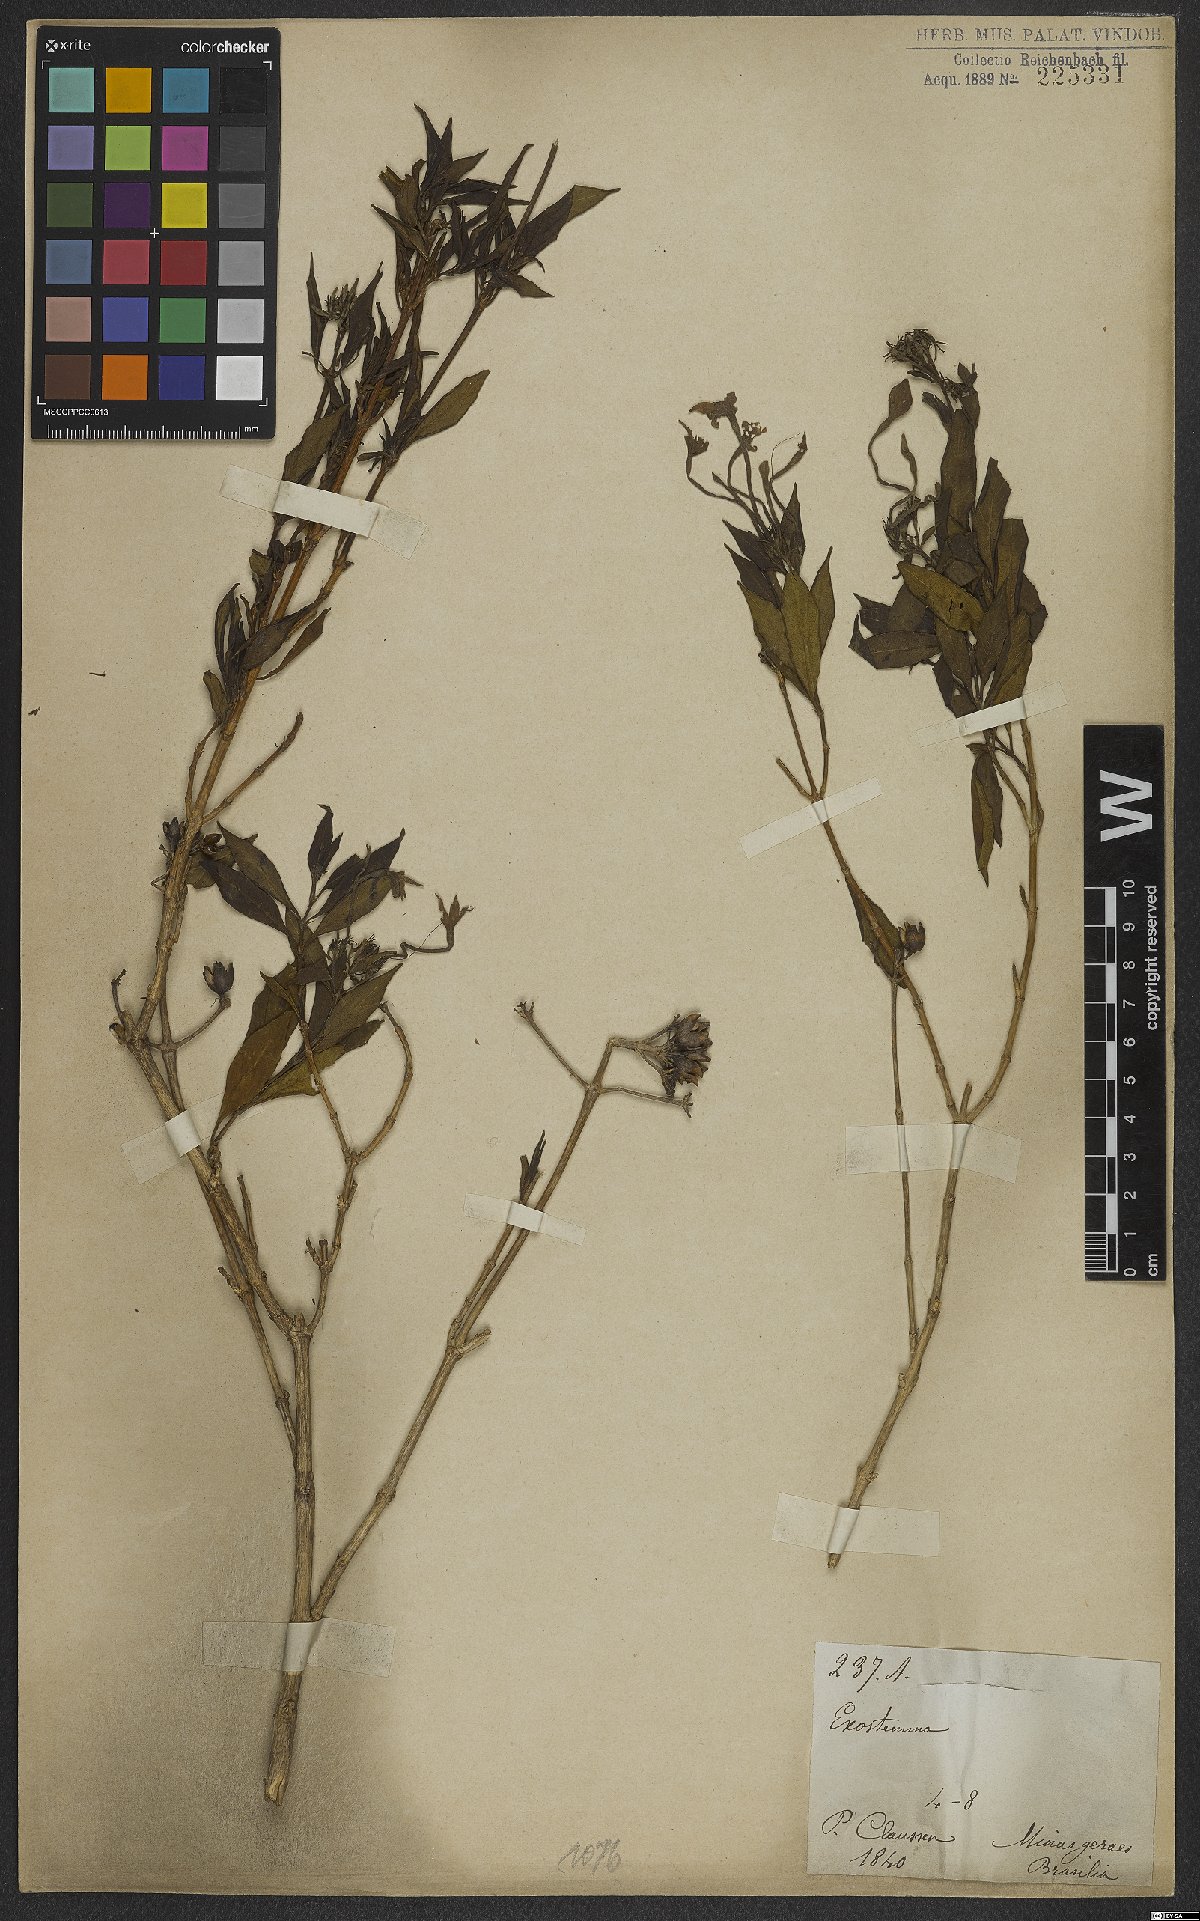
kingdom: Plantae
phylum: Tracheophyta
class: Magnoliopsida
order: Gentianales
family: Rubiaceae
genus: Exostema
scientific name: Exostema
